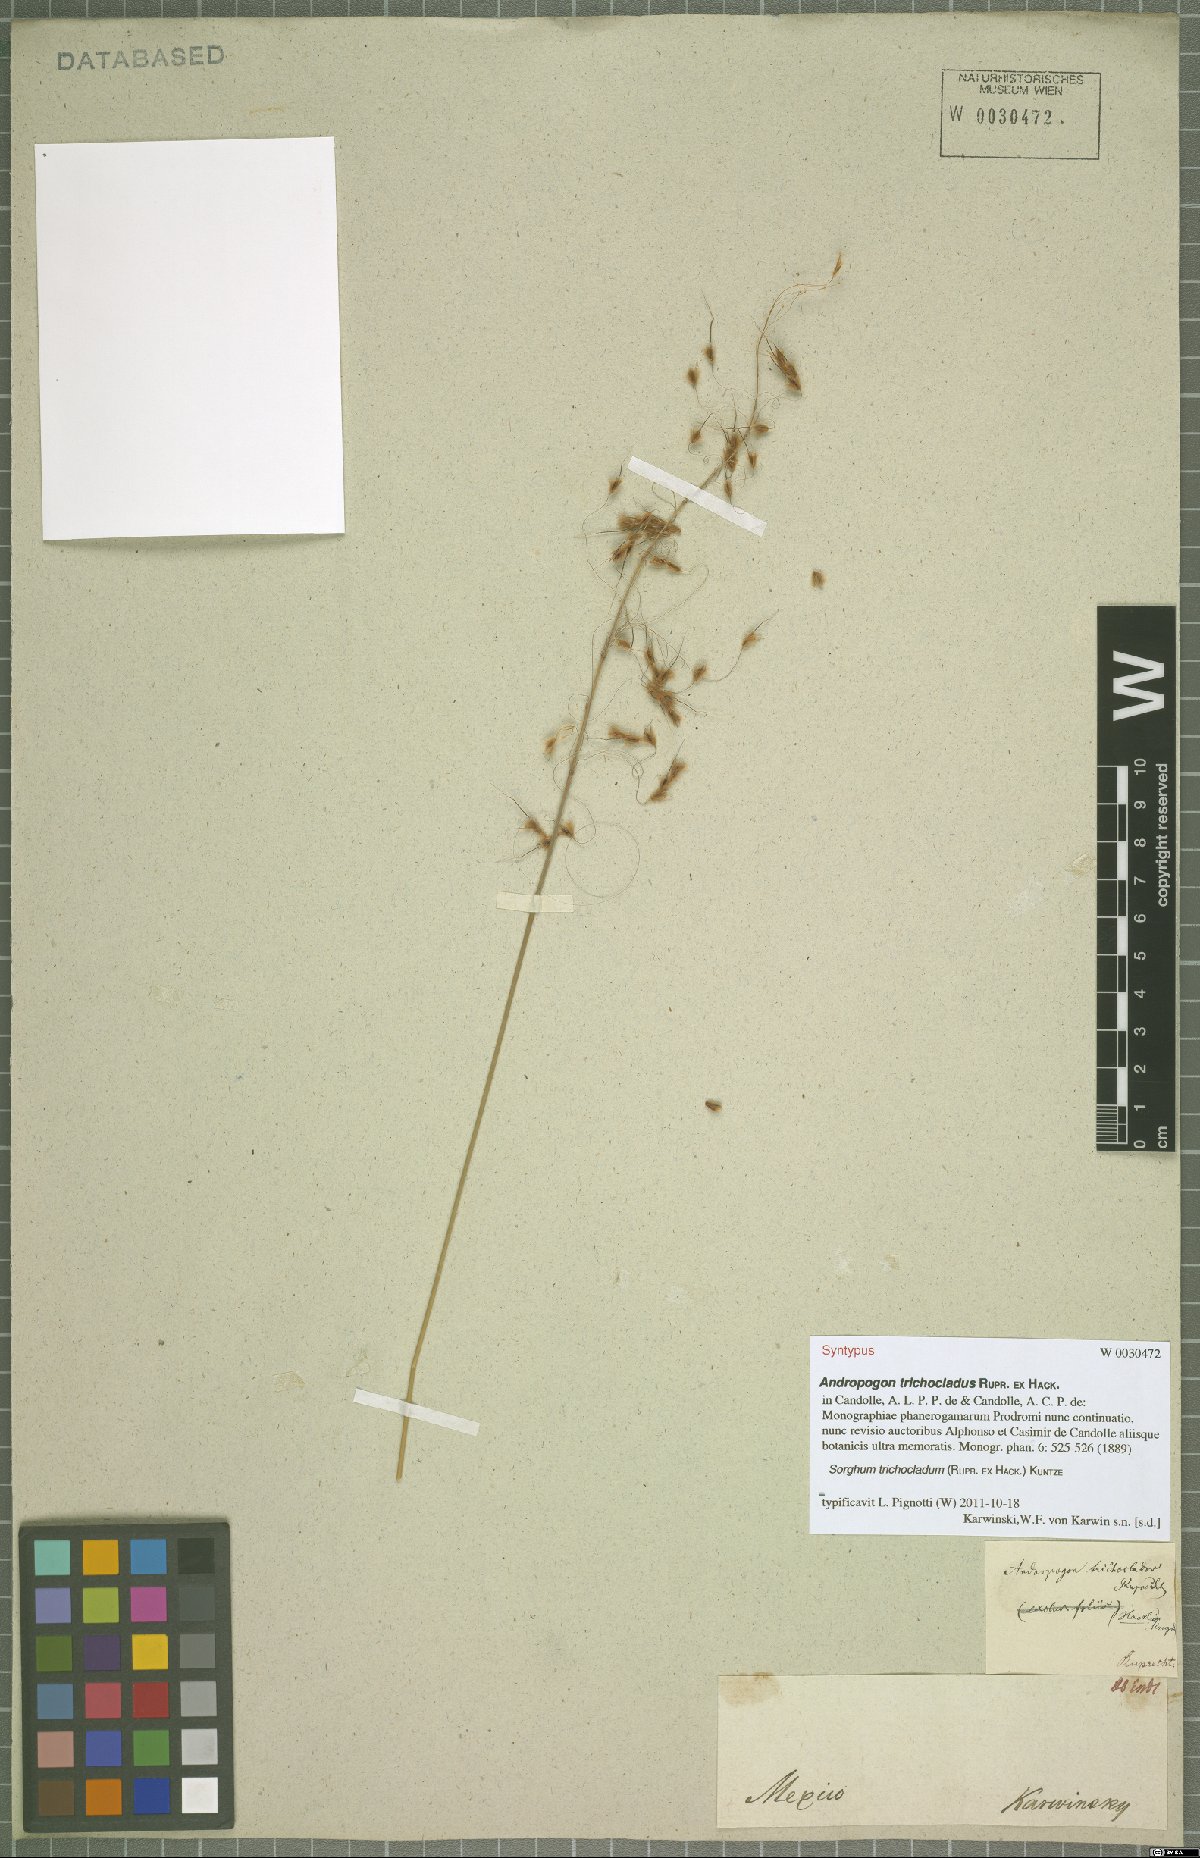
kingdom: Plantae
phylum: Tracheophyta
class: Liliopsida
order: Poales
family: Poaceae
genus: Sarga
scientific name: Sarga trichoclada
